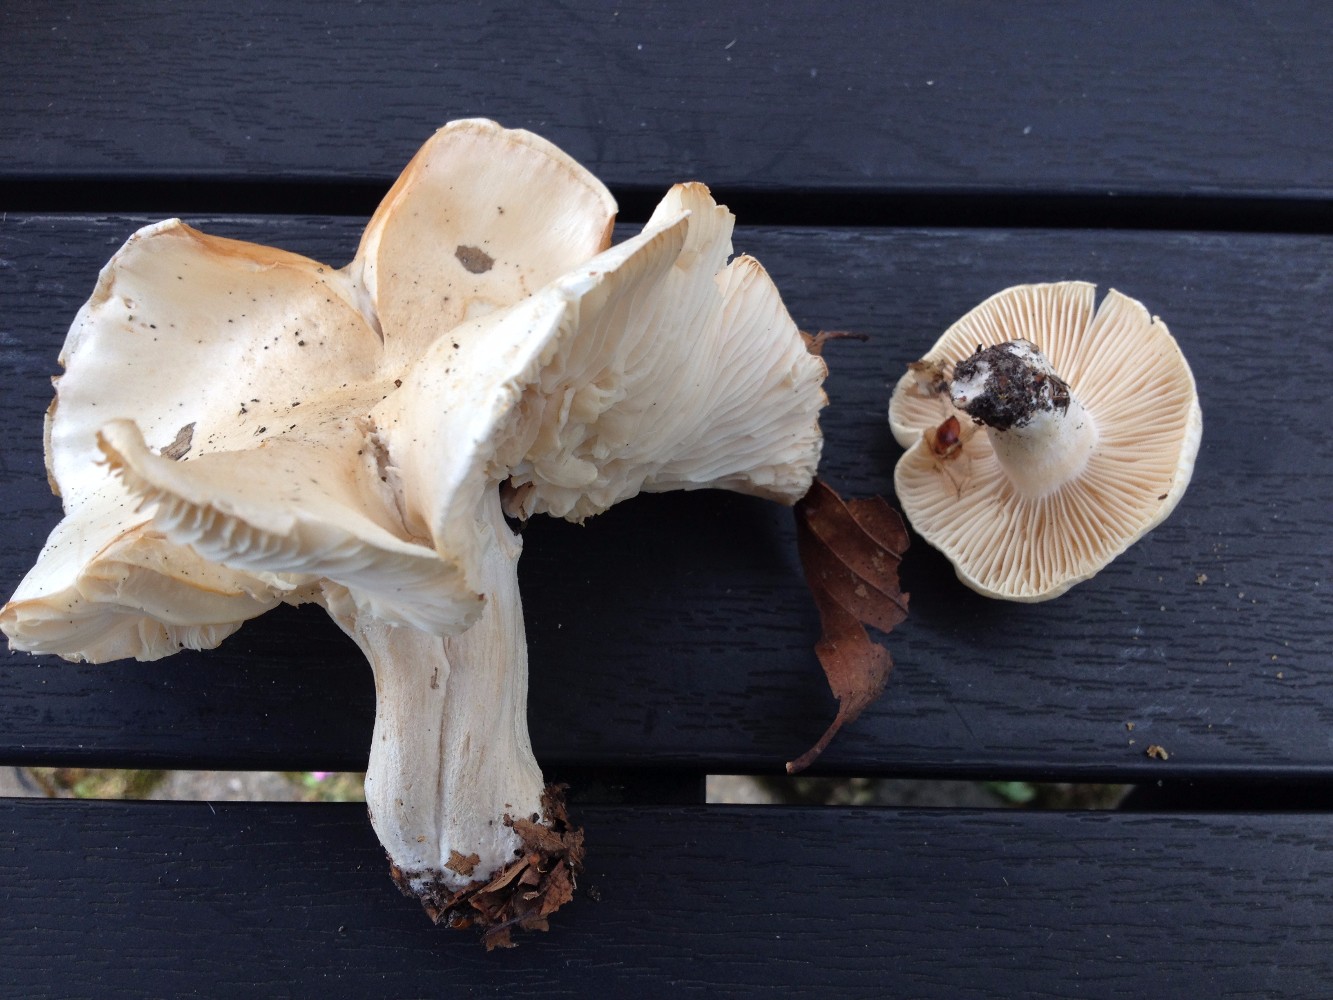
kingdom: Fungi
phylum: Basidiomycota
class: Agaricomycetes
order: Agaricales
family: Hygrophoraceae
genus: Hygrophorus
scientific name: Hygrophorus penarius
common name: spiselig sneglehat
